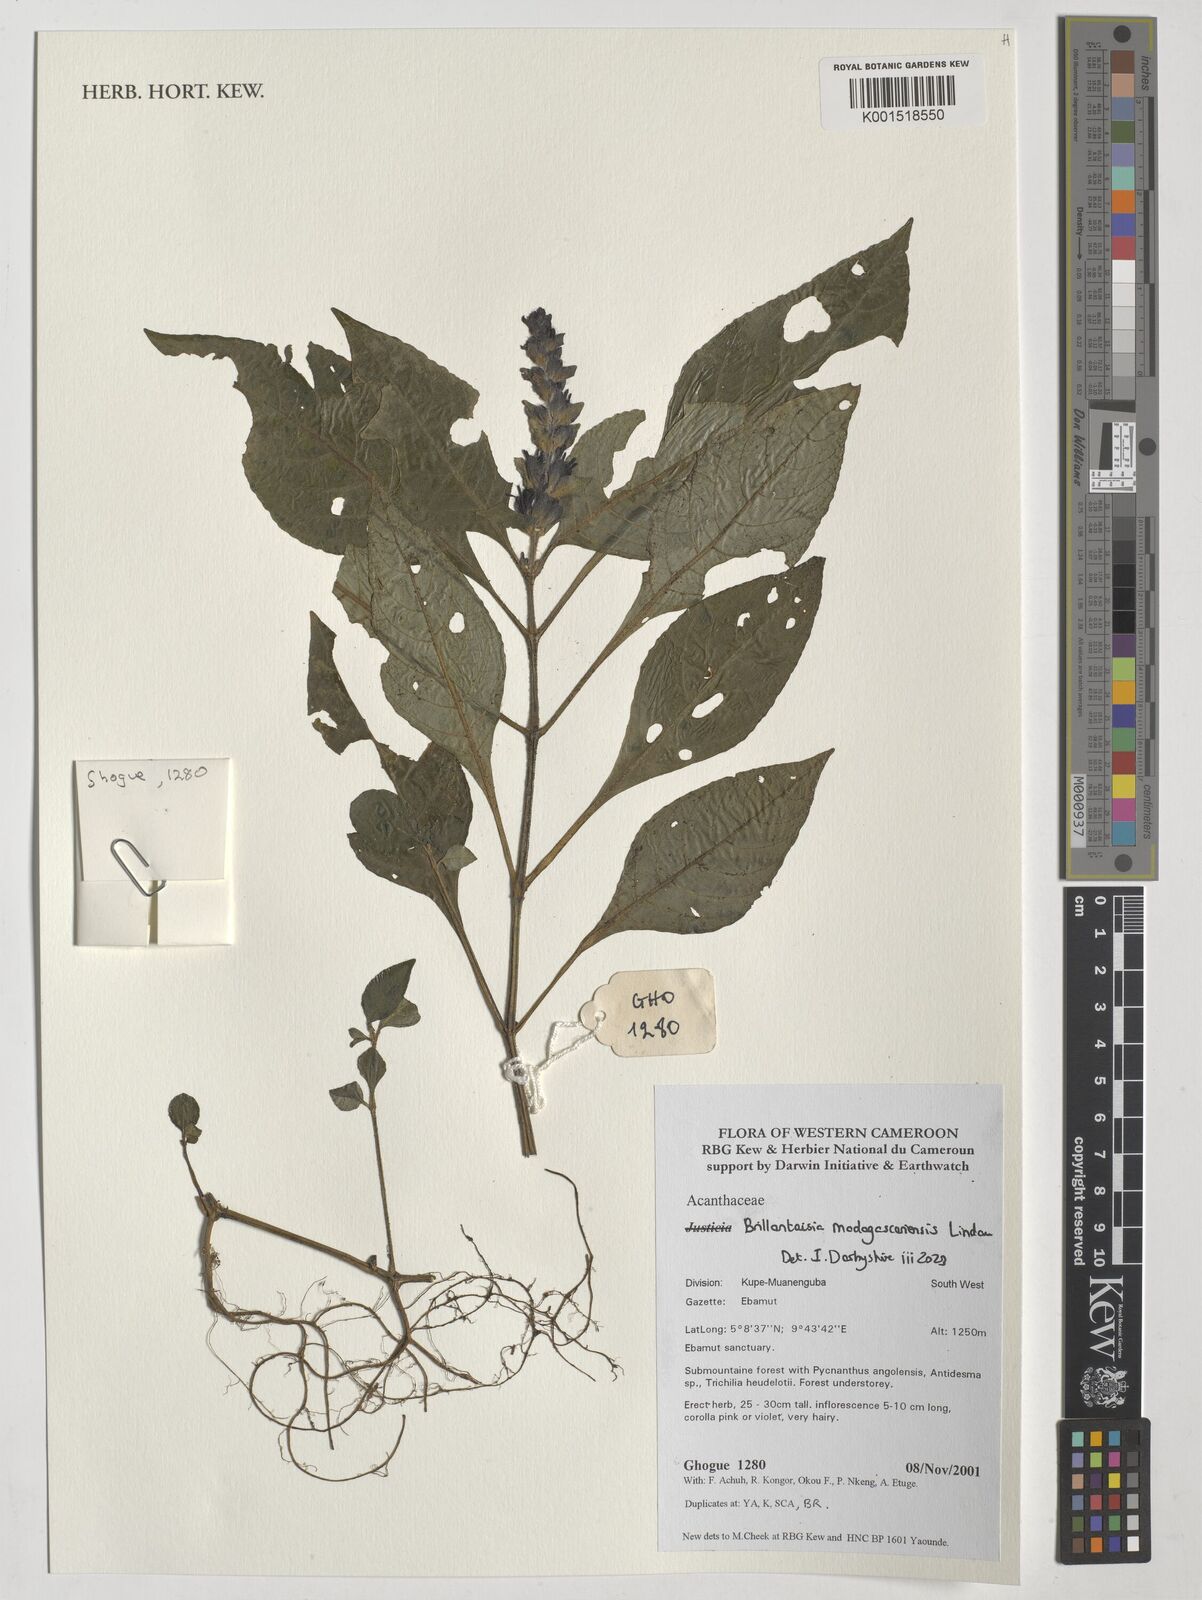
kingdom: Plantae
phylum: Tracheophyta
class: Magnoliopsida
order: Lamiales
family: Acanthaceae
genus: Brillantaisia
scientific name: Brillantaisia madagascariensis
